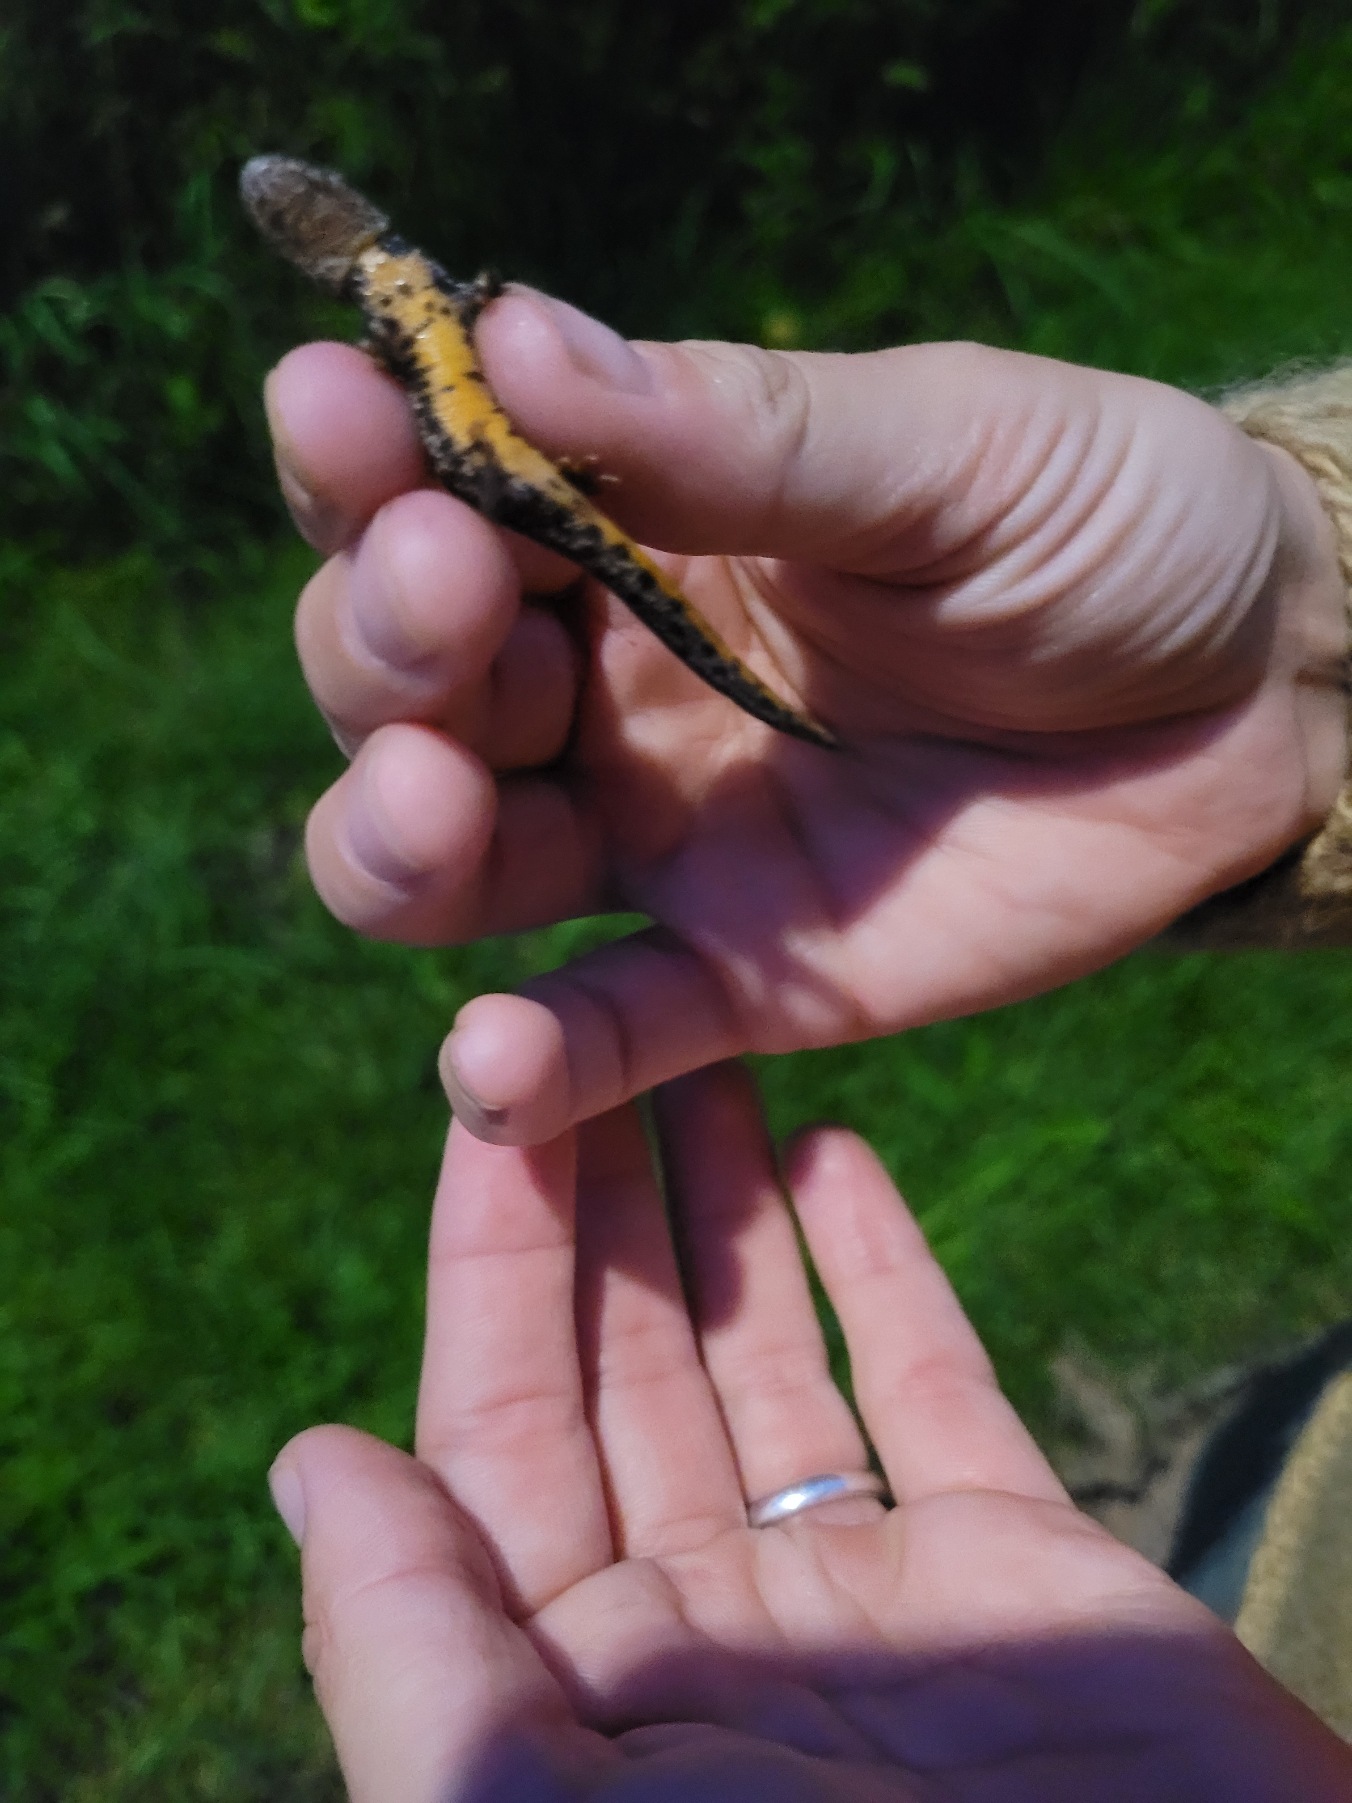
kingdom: Animalia
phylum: Chordata
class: Amphibia
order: Caudata
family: Salamandridae
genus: Triturus
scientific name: Triturus cristatus
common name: Stor vandsalamander
